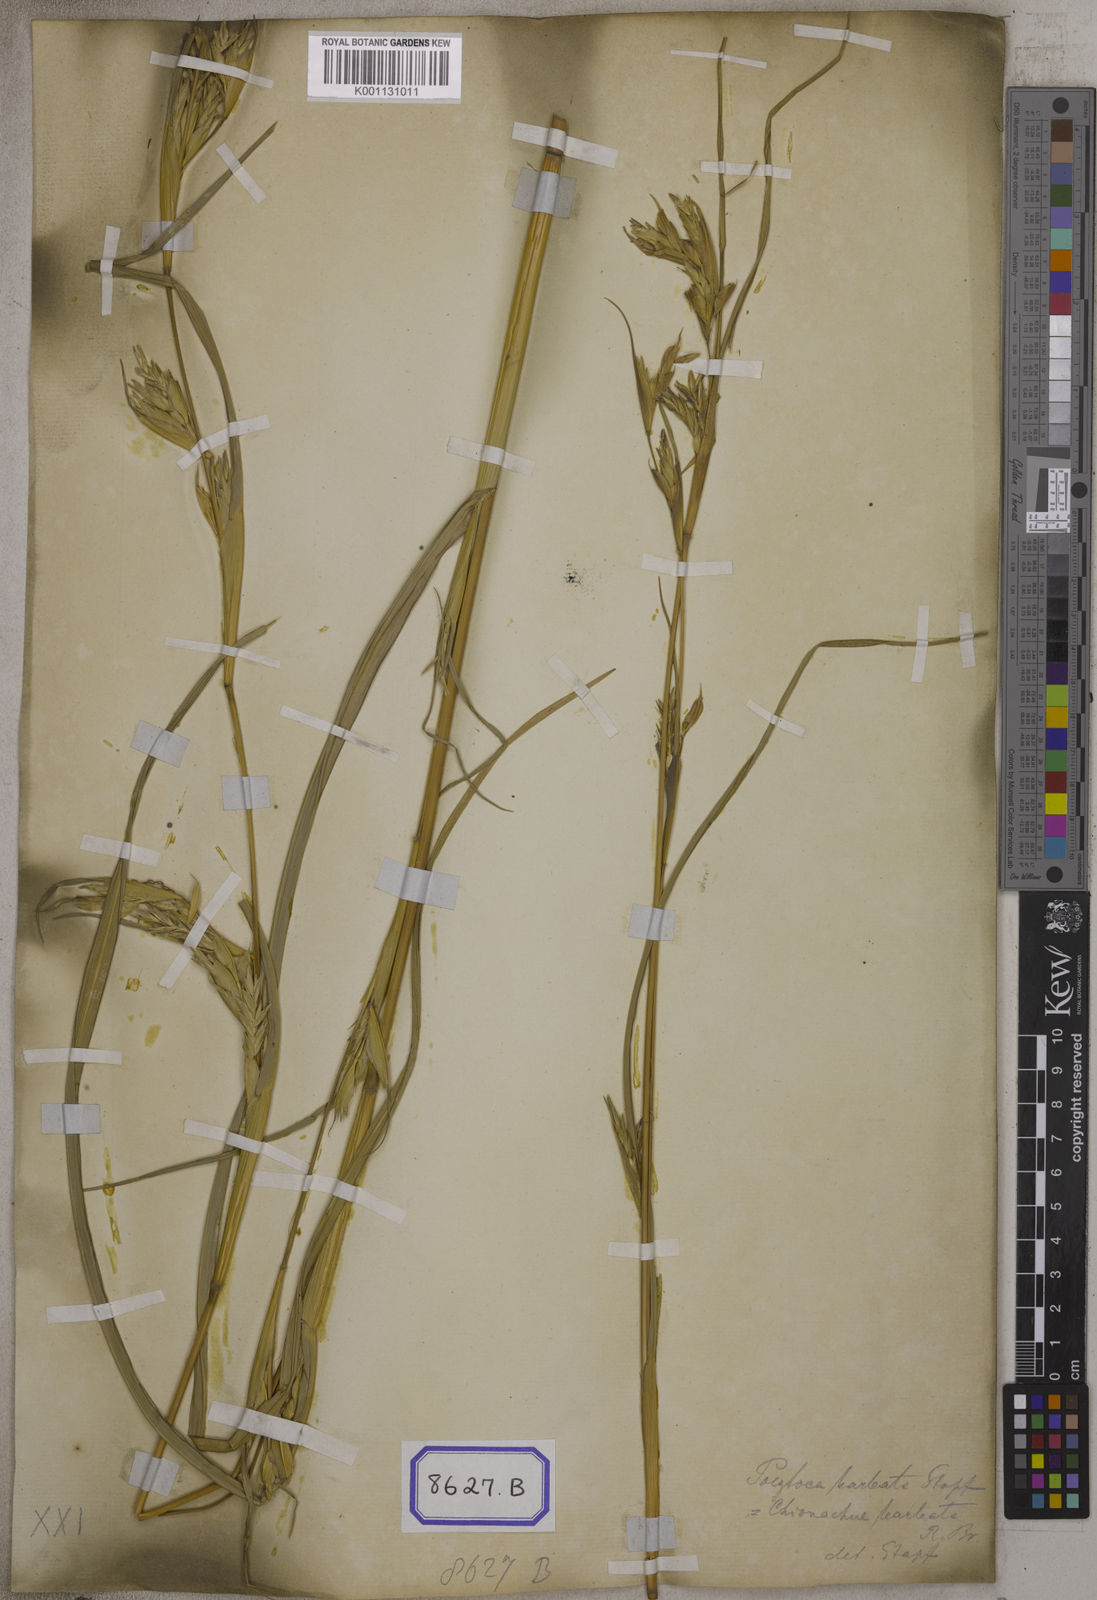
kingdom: Plantae
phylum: Tracheophyta
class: Liliopsida
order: Poales
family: Poaceae
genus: Polytoca
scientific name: Polytoca digitata
